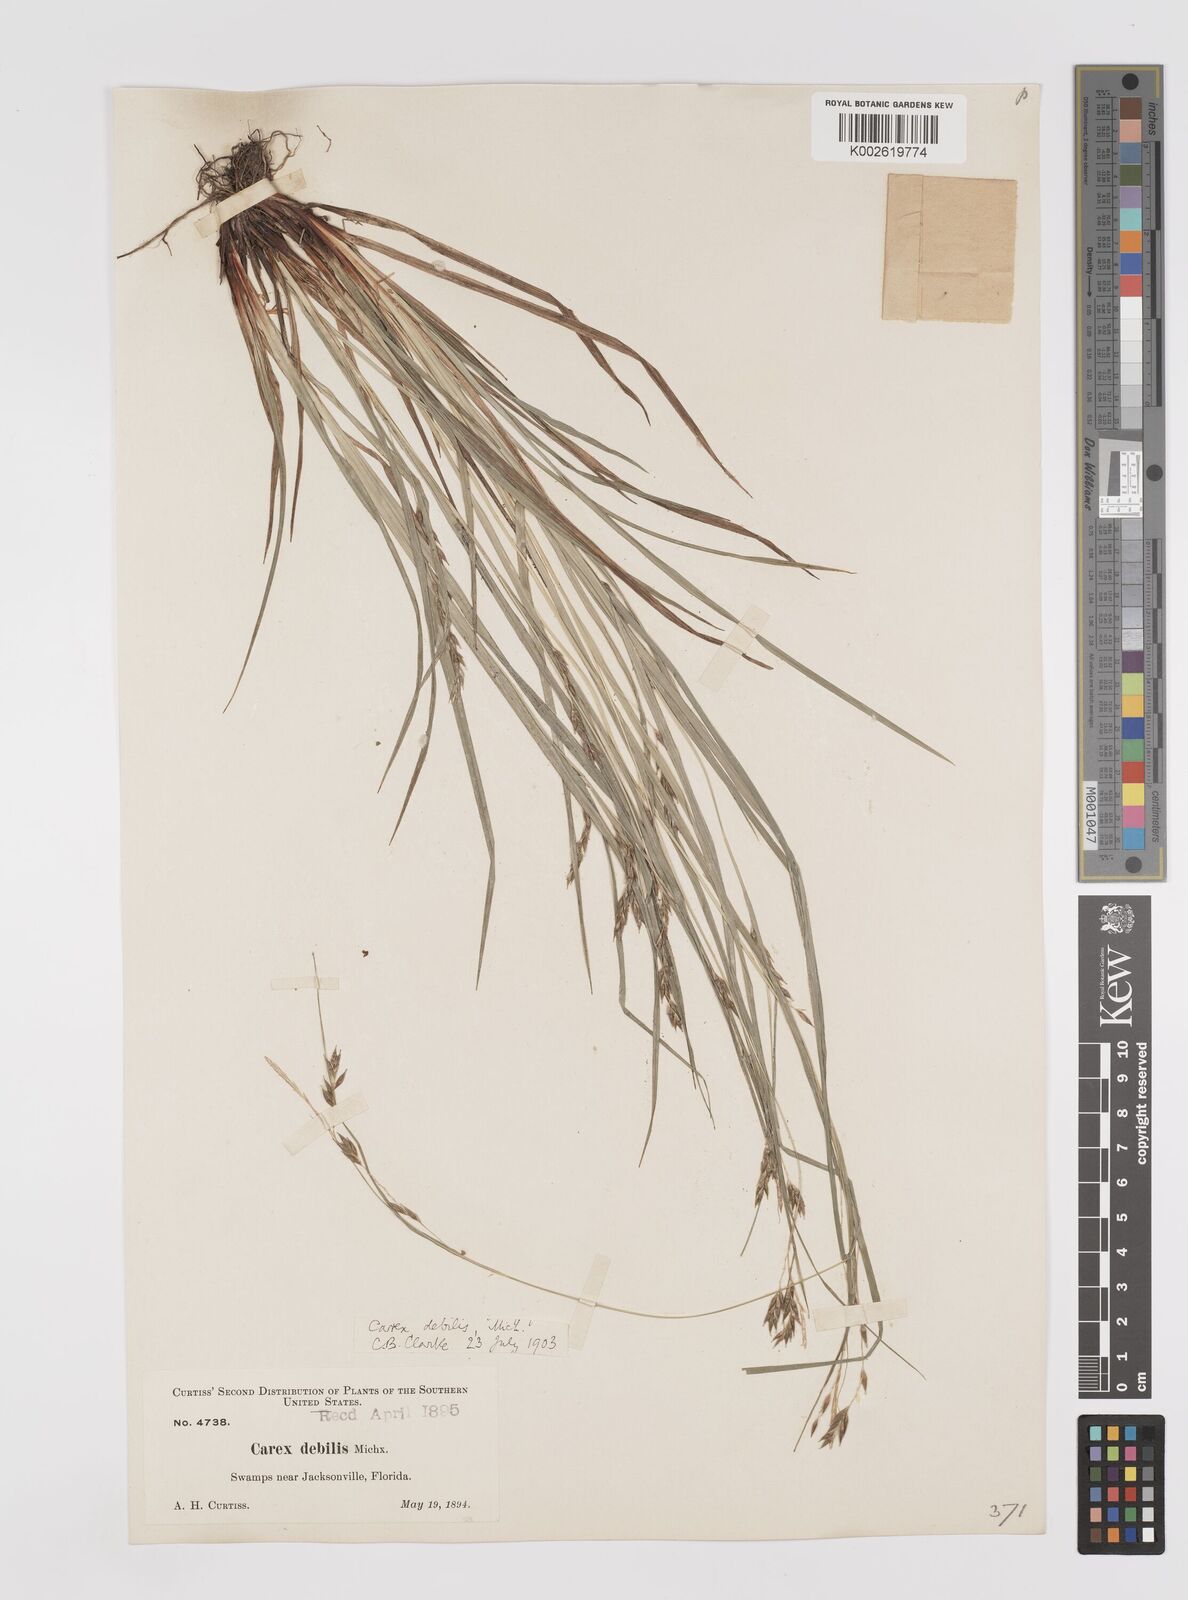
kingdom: Plantae
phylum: Tracheophyta
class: Liliopsida
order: Poales
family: Cyperaceae
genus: Carex
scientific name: Carex debilis
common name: White-edge sedge
